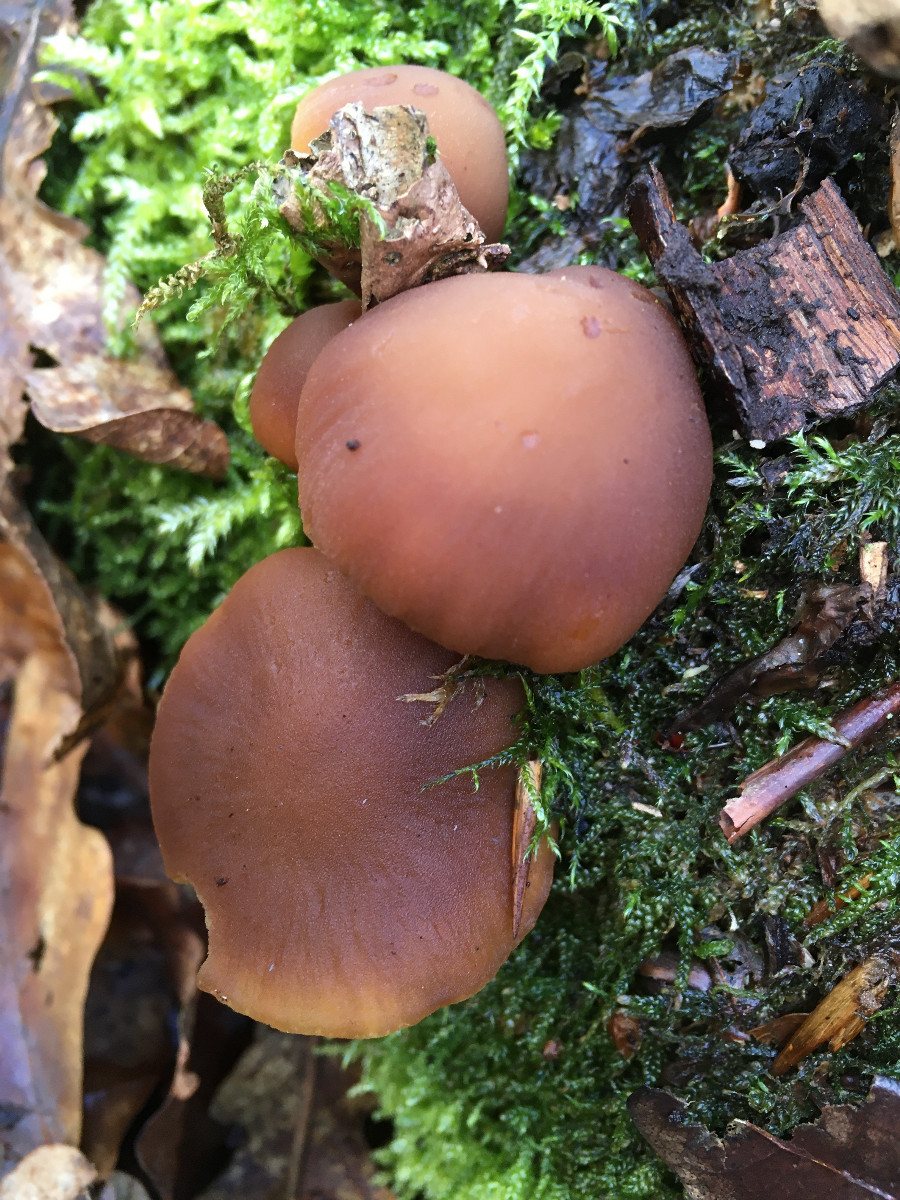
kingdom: Fungi
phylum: Basidiomycota
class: Agaricomycetes
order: Agaricales
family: Psathyrellaceae
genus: Psathyrella
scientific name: Psathyrella
